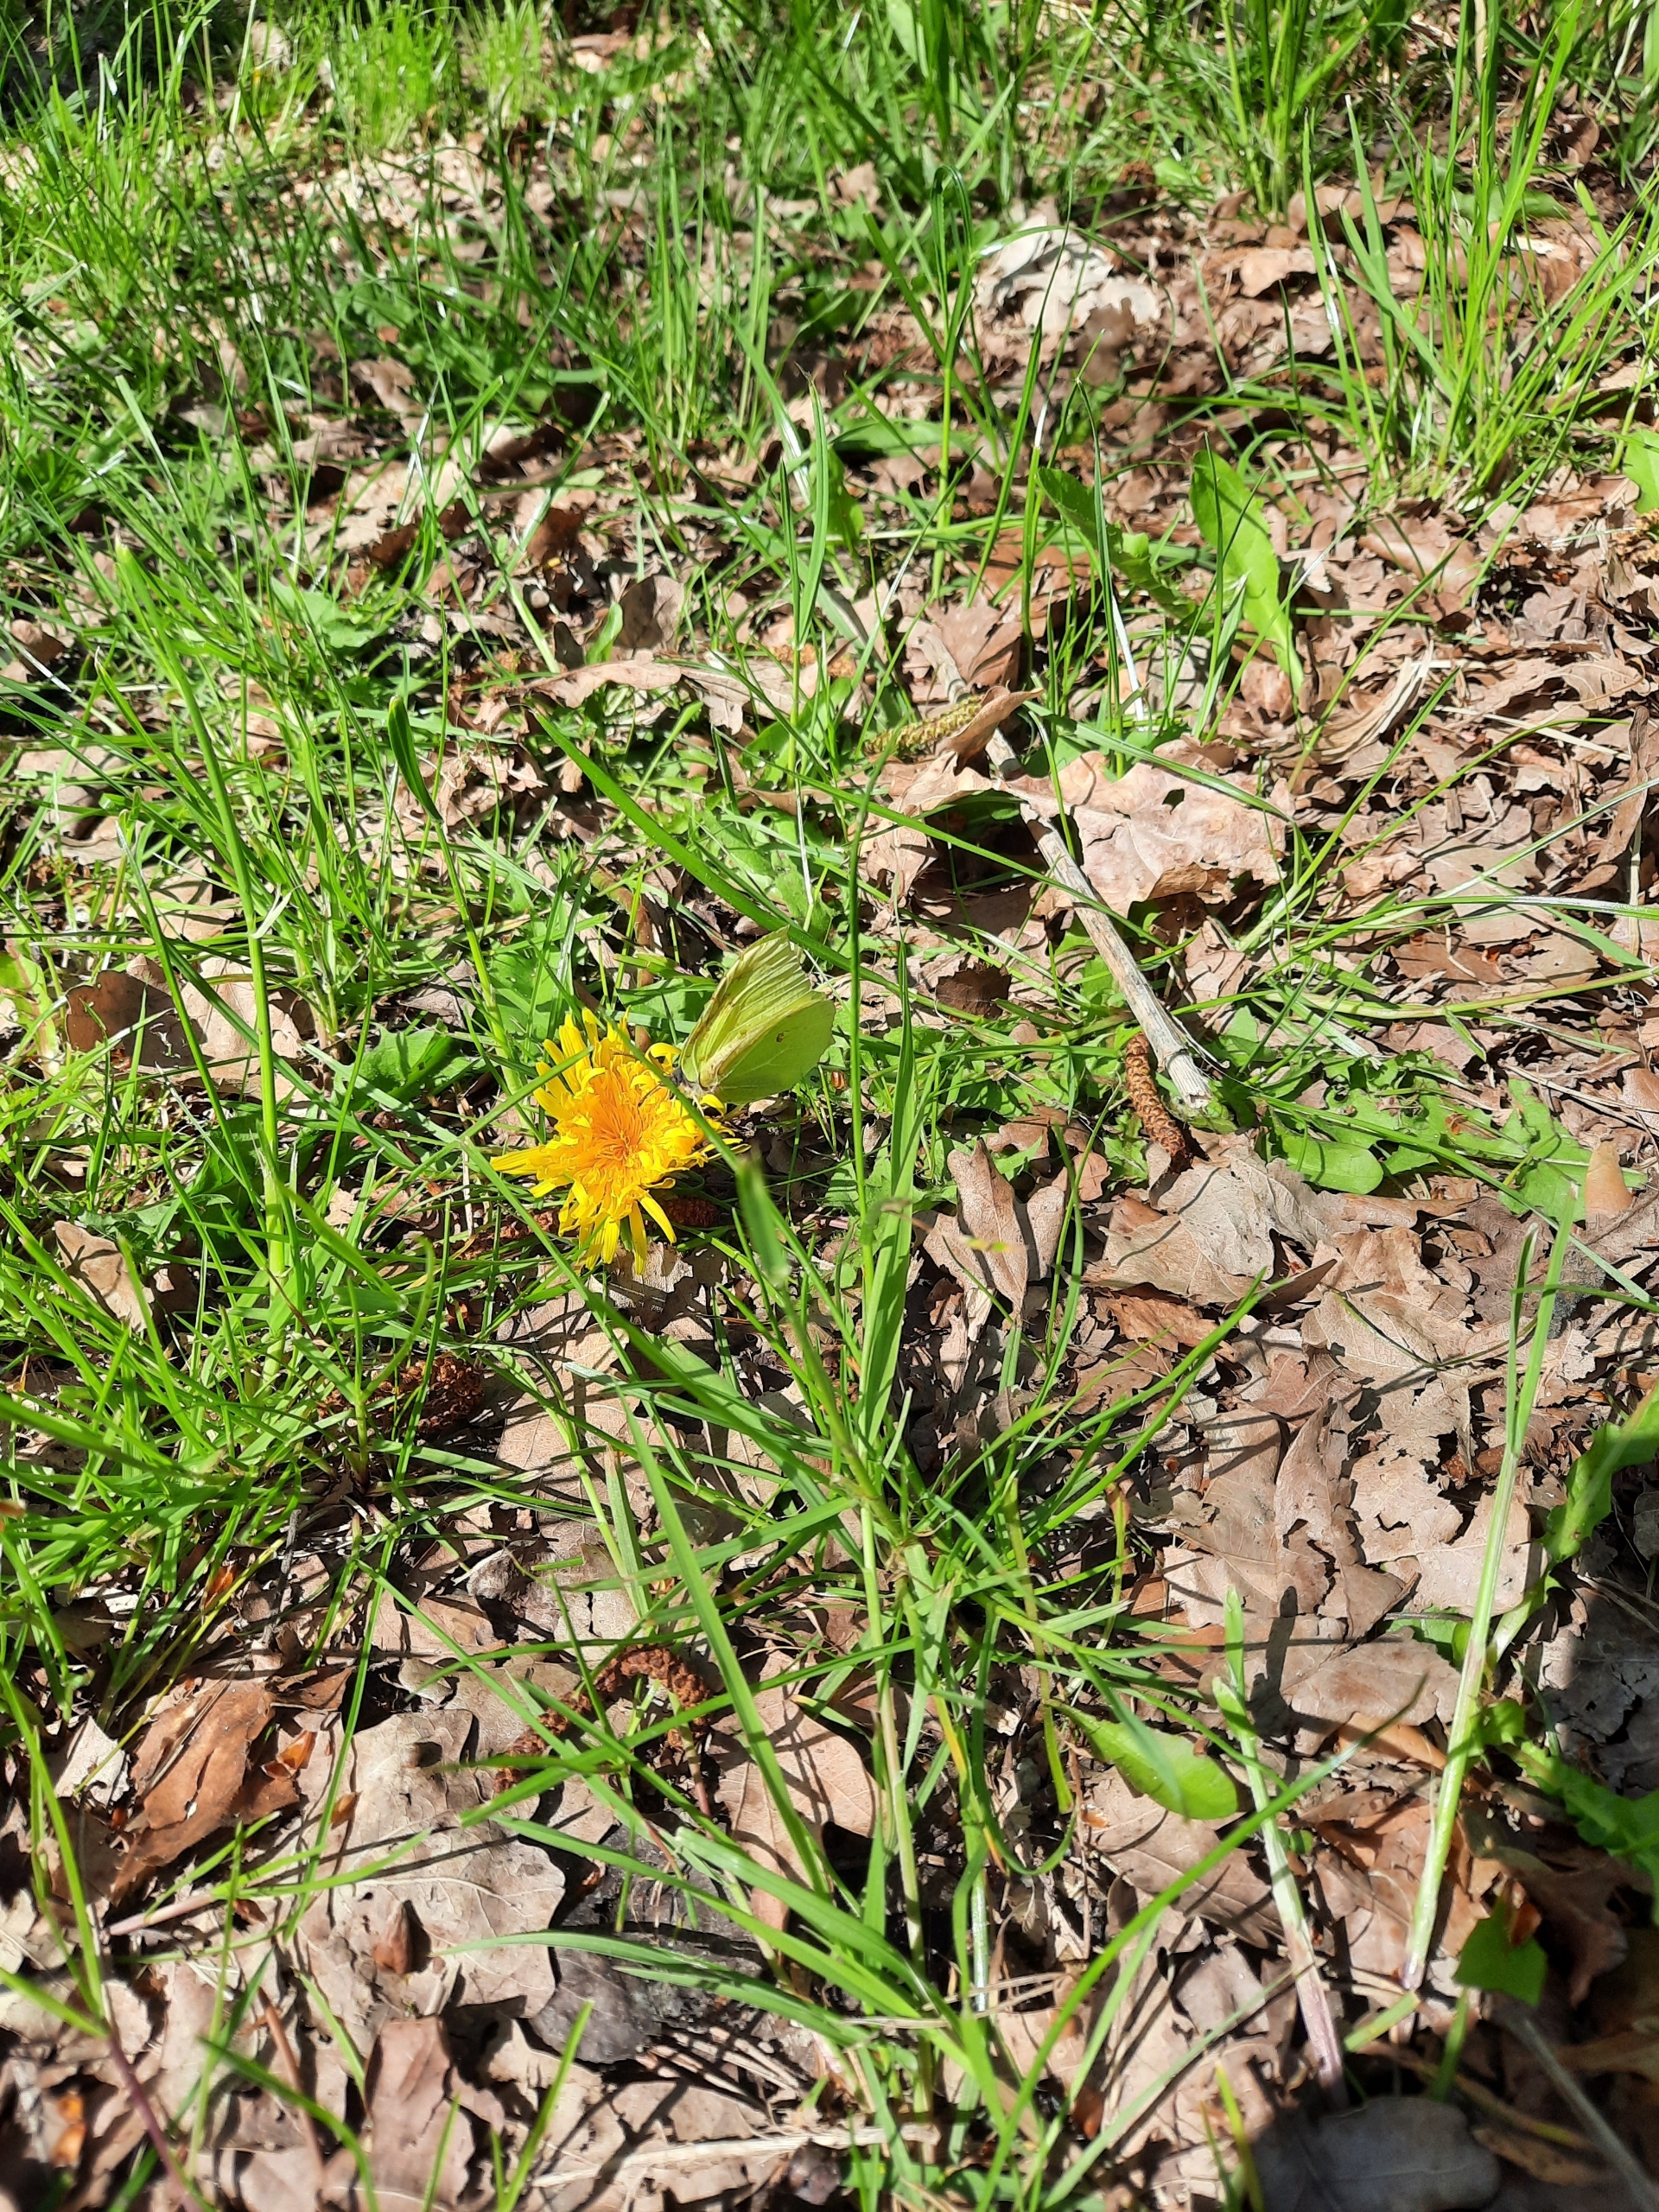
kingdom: Animalia
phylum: Arthropoda
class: Insecta
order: Lepidoptera
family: Pieridae
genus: Gonepteryx
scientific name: Gonepteryx rhamni
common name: Citronsommerfugl
